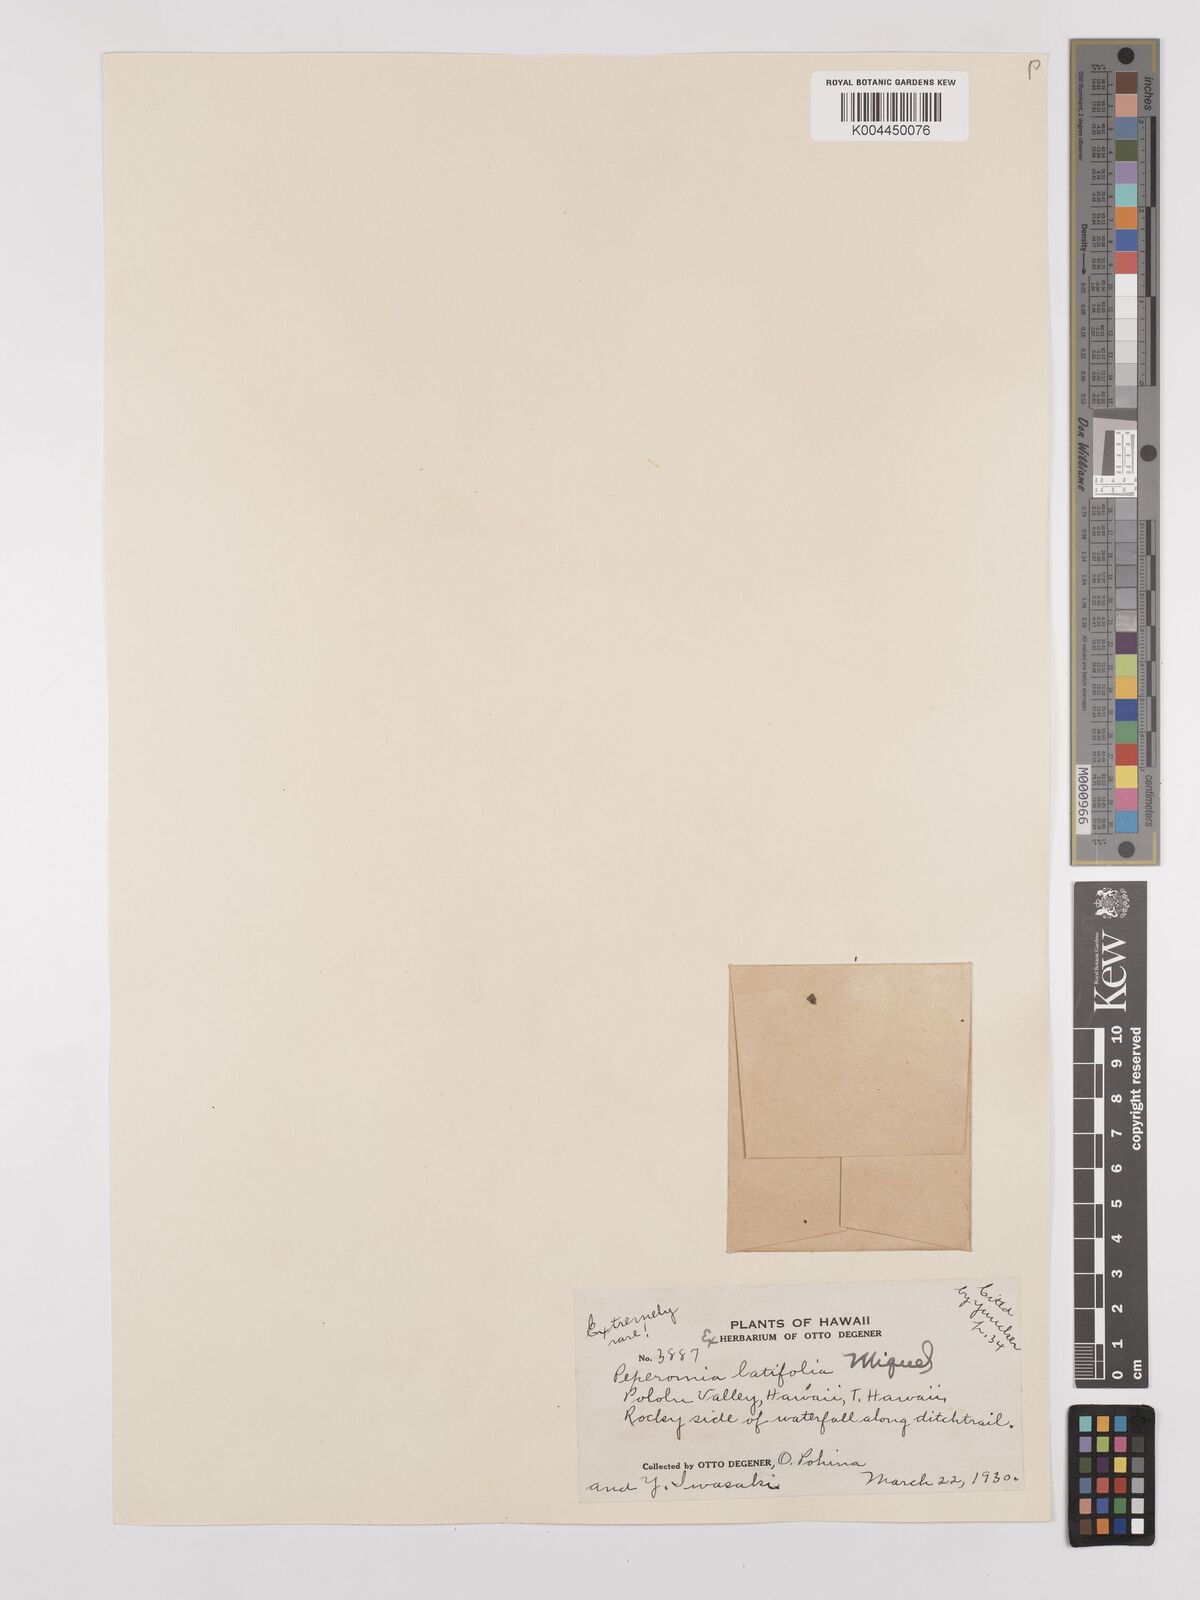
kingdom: Plantae
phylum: Tracheophyta
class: Magnoliopsida
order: Piperales
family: Piperaceae
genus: Peperomia
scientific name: Peperomia latifolia
